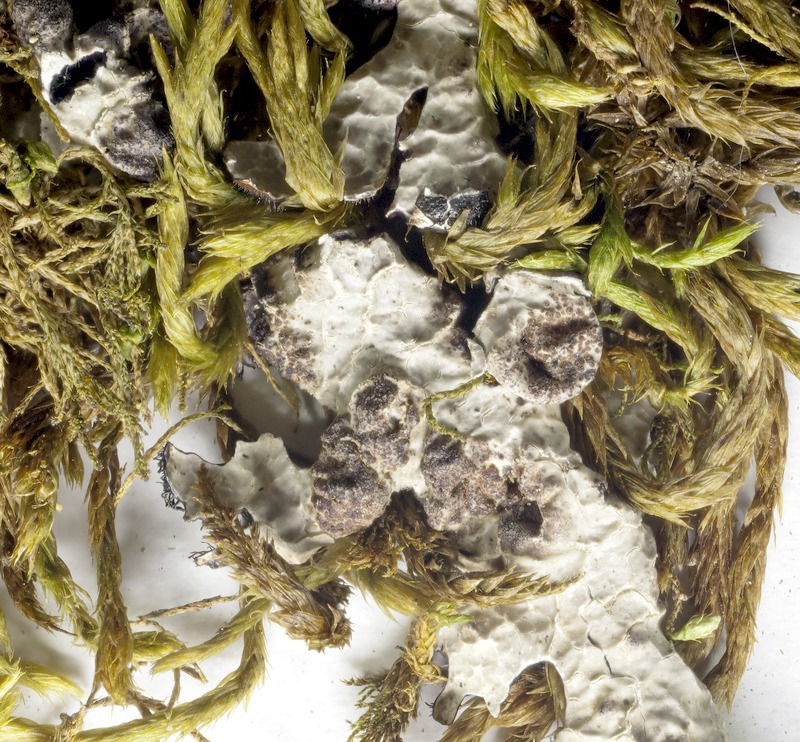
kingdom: Fungi
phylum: Ascomycota
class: Arthoniomycetes
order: Arthoniales
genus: Arthophacopsis
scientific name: Arthophacopsis parmeliarum
